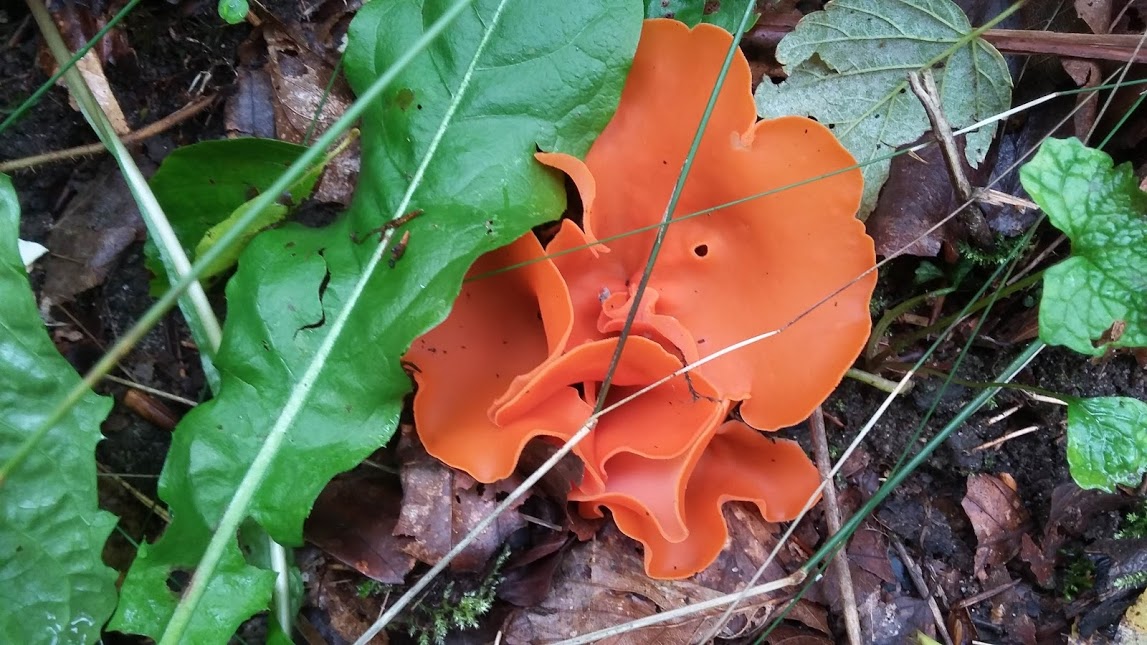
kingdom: Fungi
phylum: Ascomycota
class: Pezizomycetes
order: Pezizales
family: Pyronemataceae
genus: Aleuria
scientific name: Aleuria aurantia
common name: almindelig orangebæger
